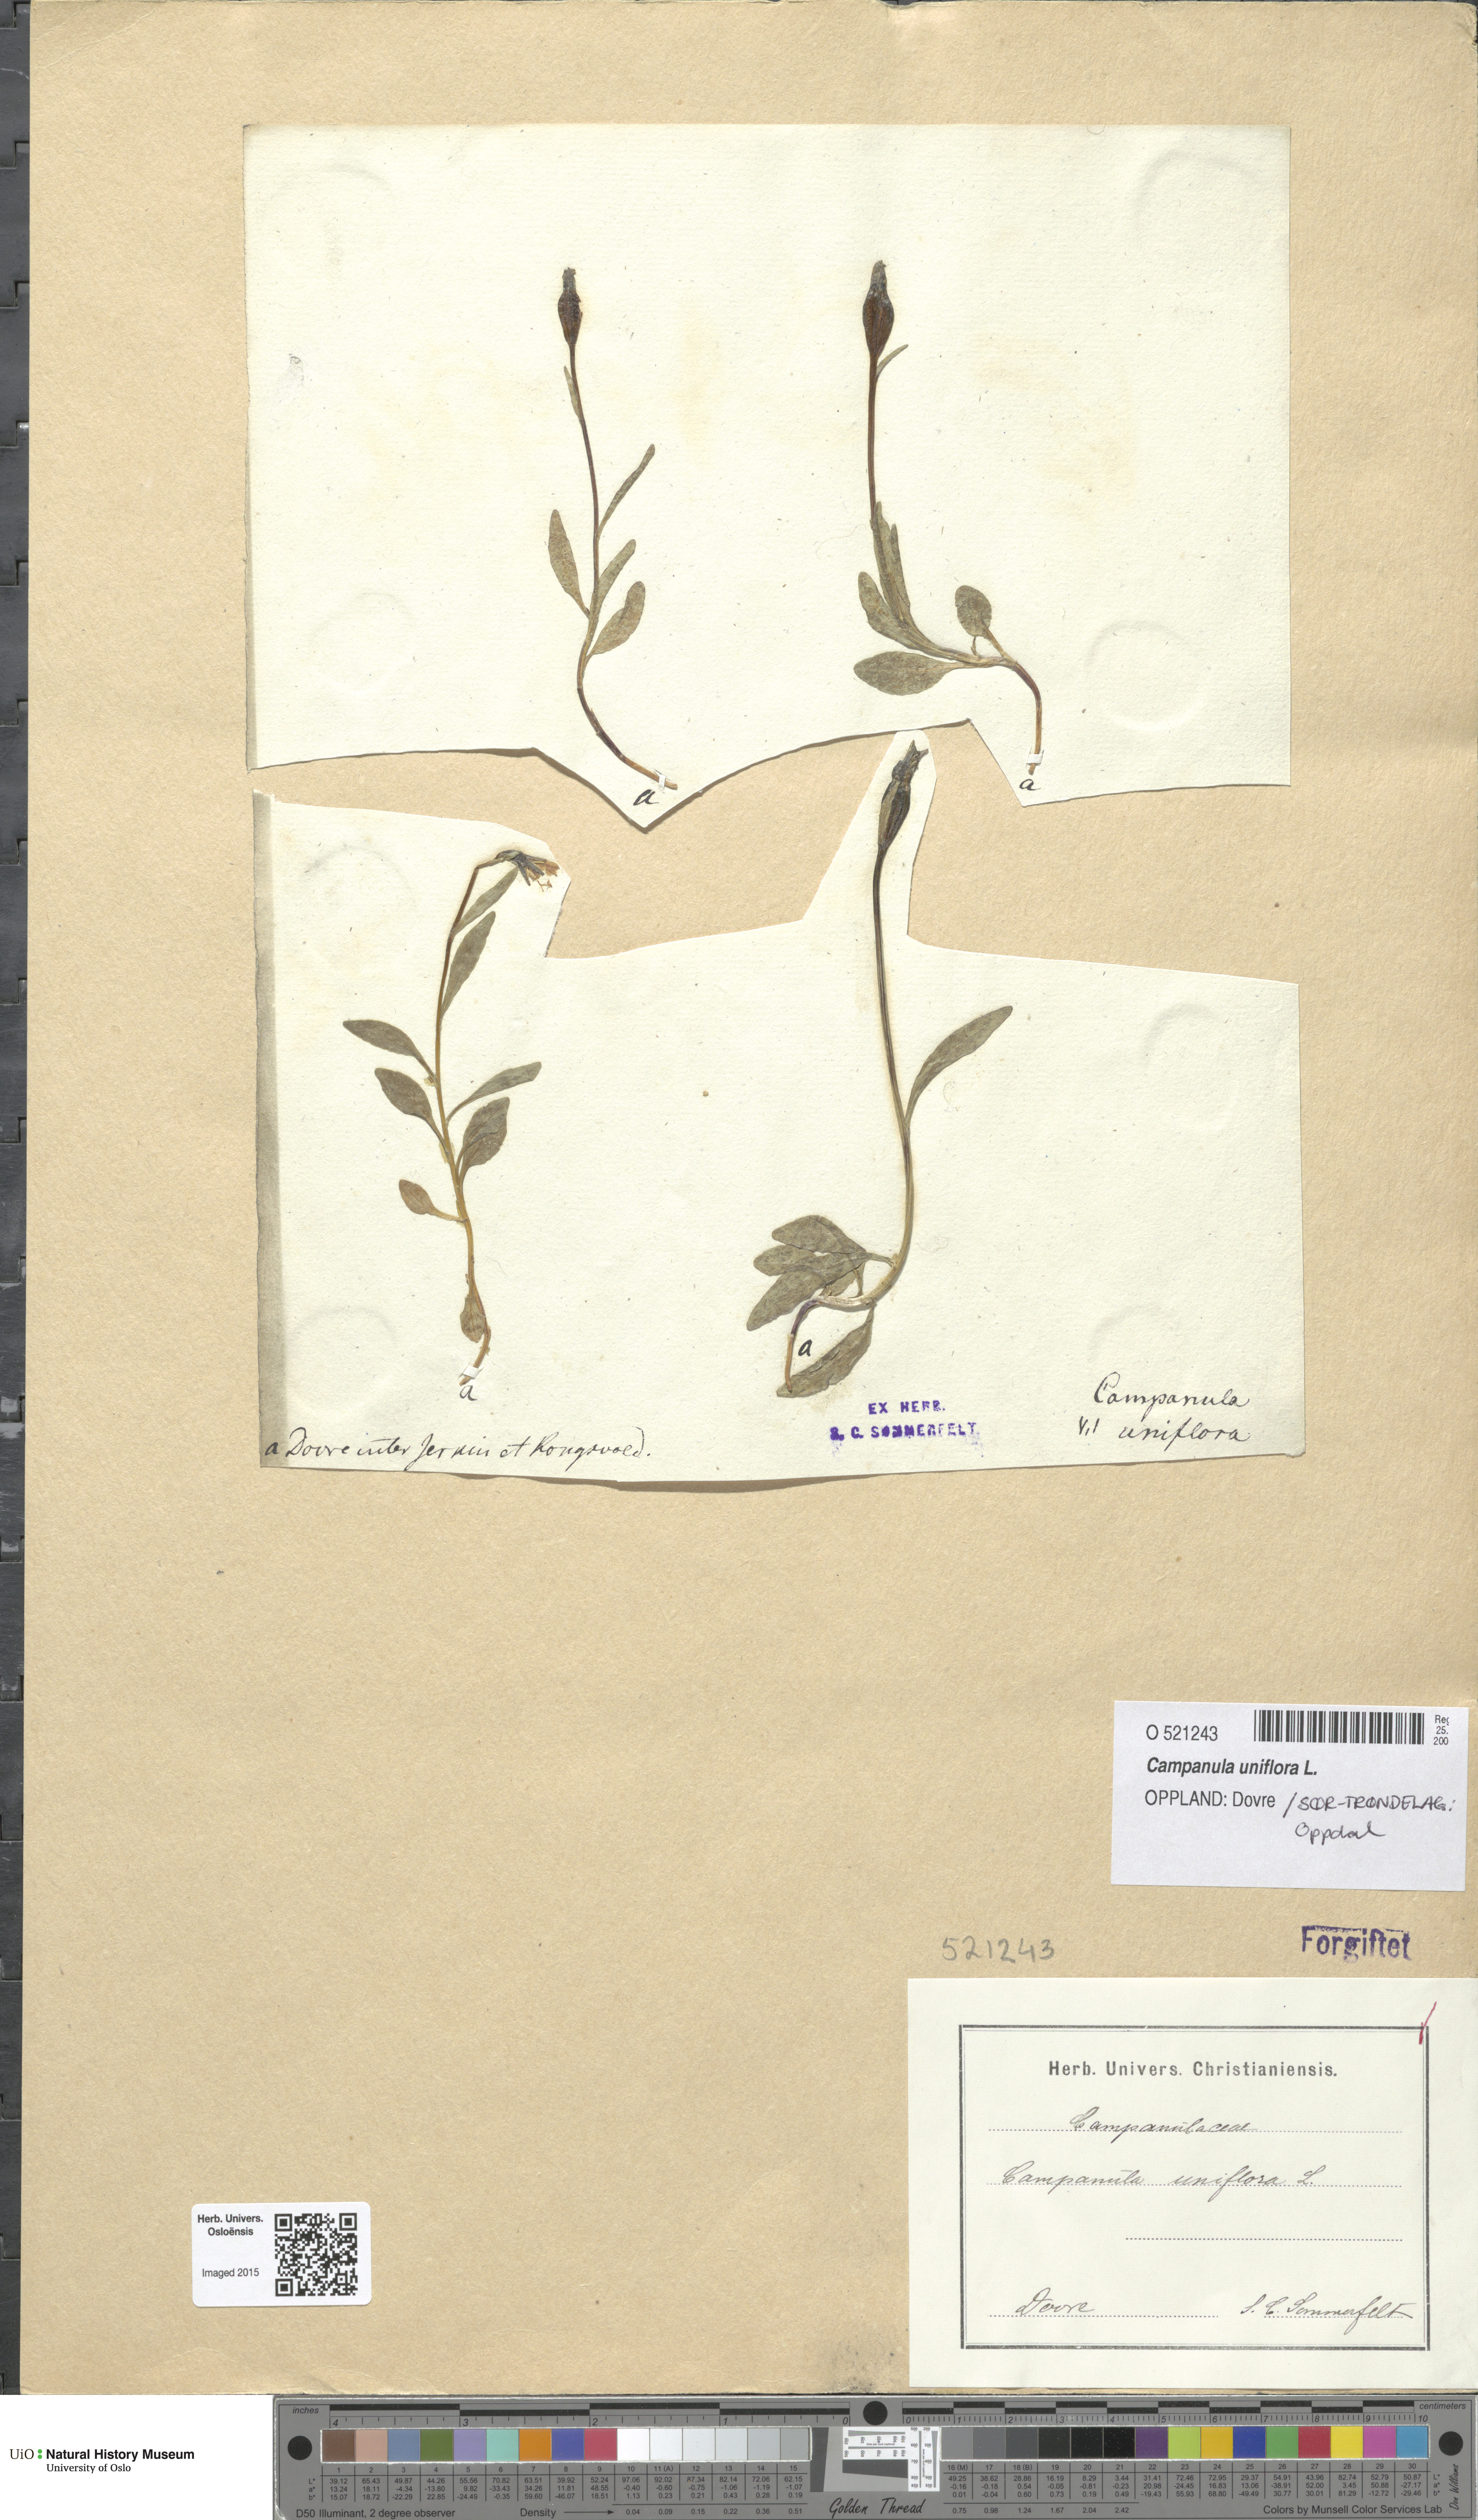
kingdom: Plantae
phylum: Tracheophyta
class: Magnoliopsida
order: Asterales
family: Campanulaceae
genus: Melanocalyx
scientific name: Melanocalyx uniflora
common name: Alpine harebell
